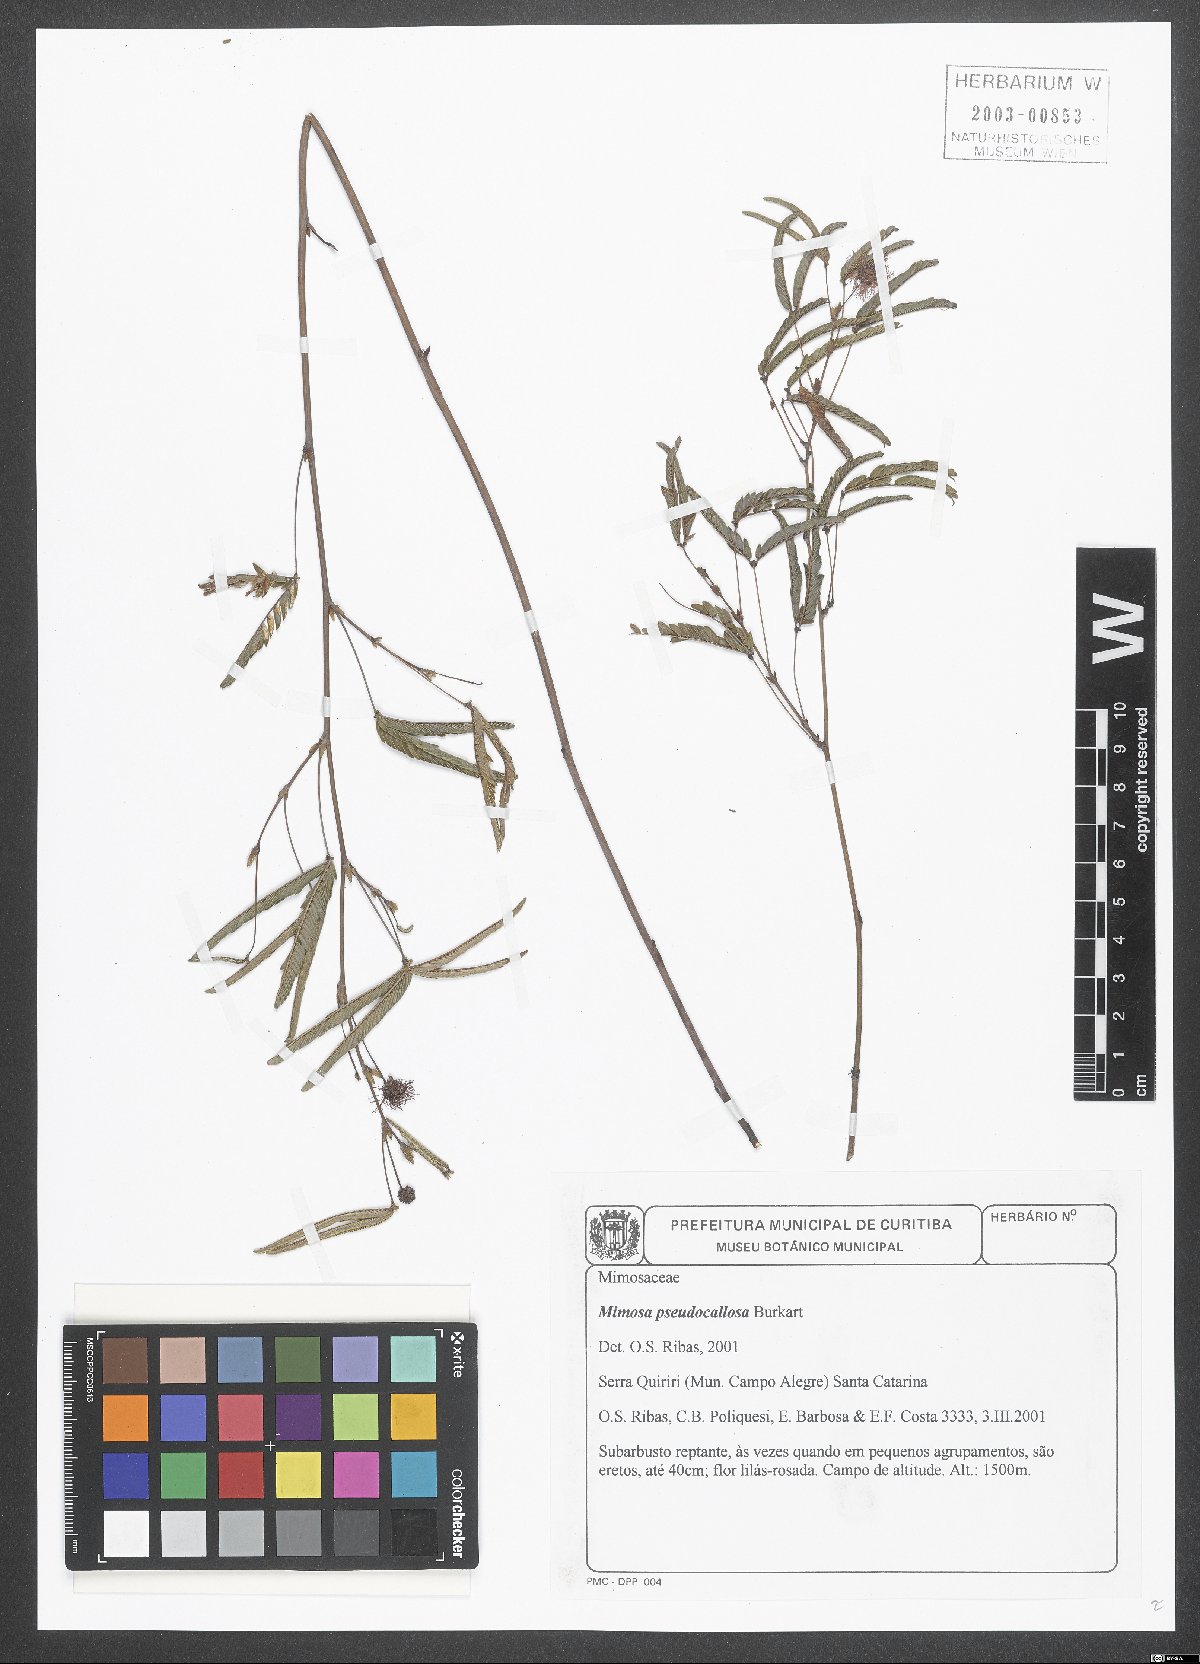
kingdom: Plantae
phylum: Tracheophyta
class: Magnoliopsida
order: Fabales
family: Fabaceae
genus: Mimosa
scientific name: Mimosa pseudocallosa
